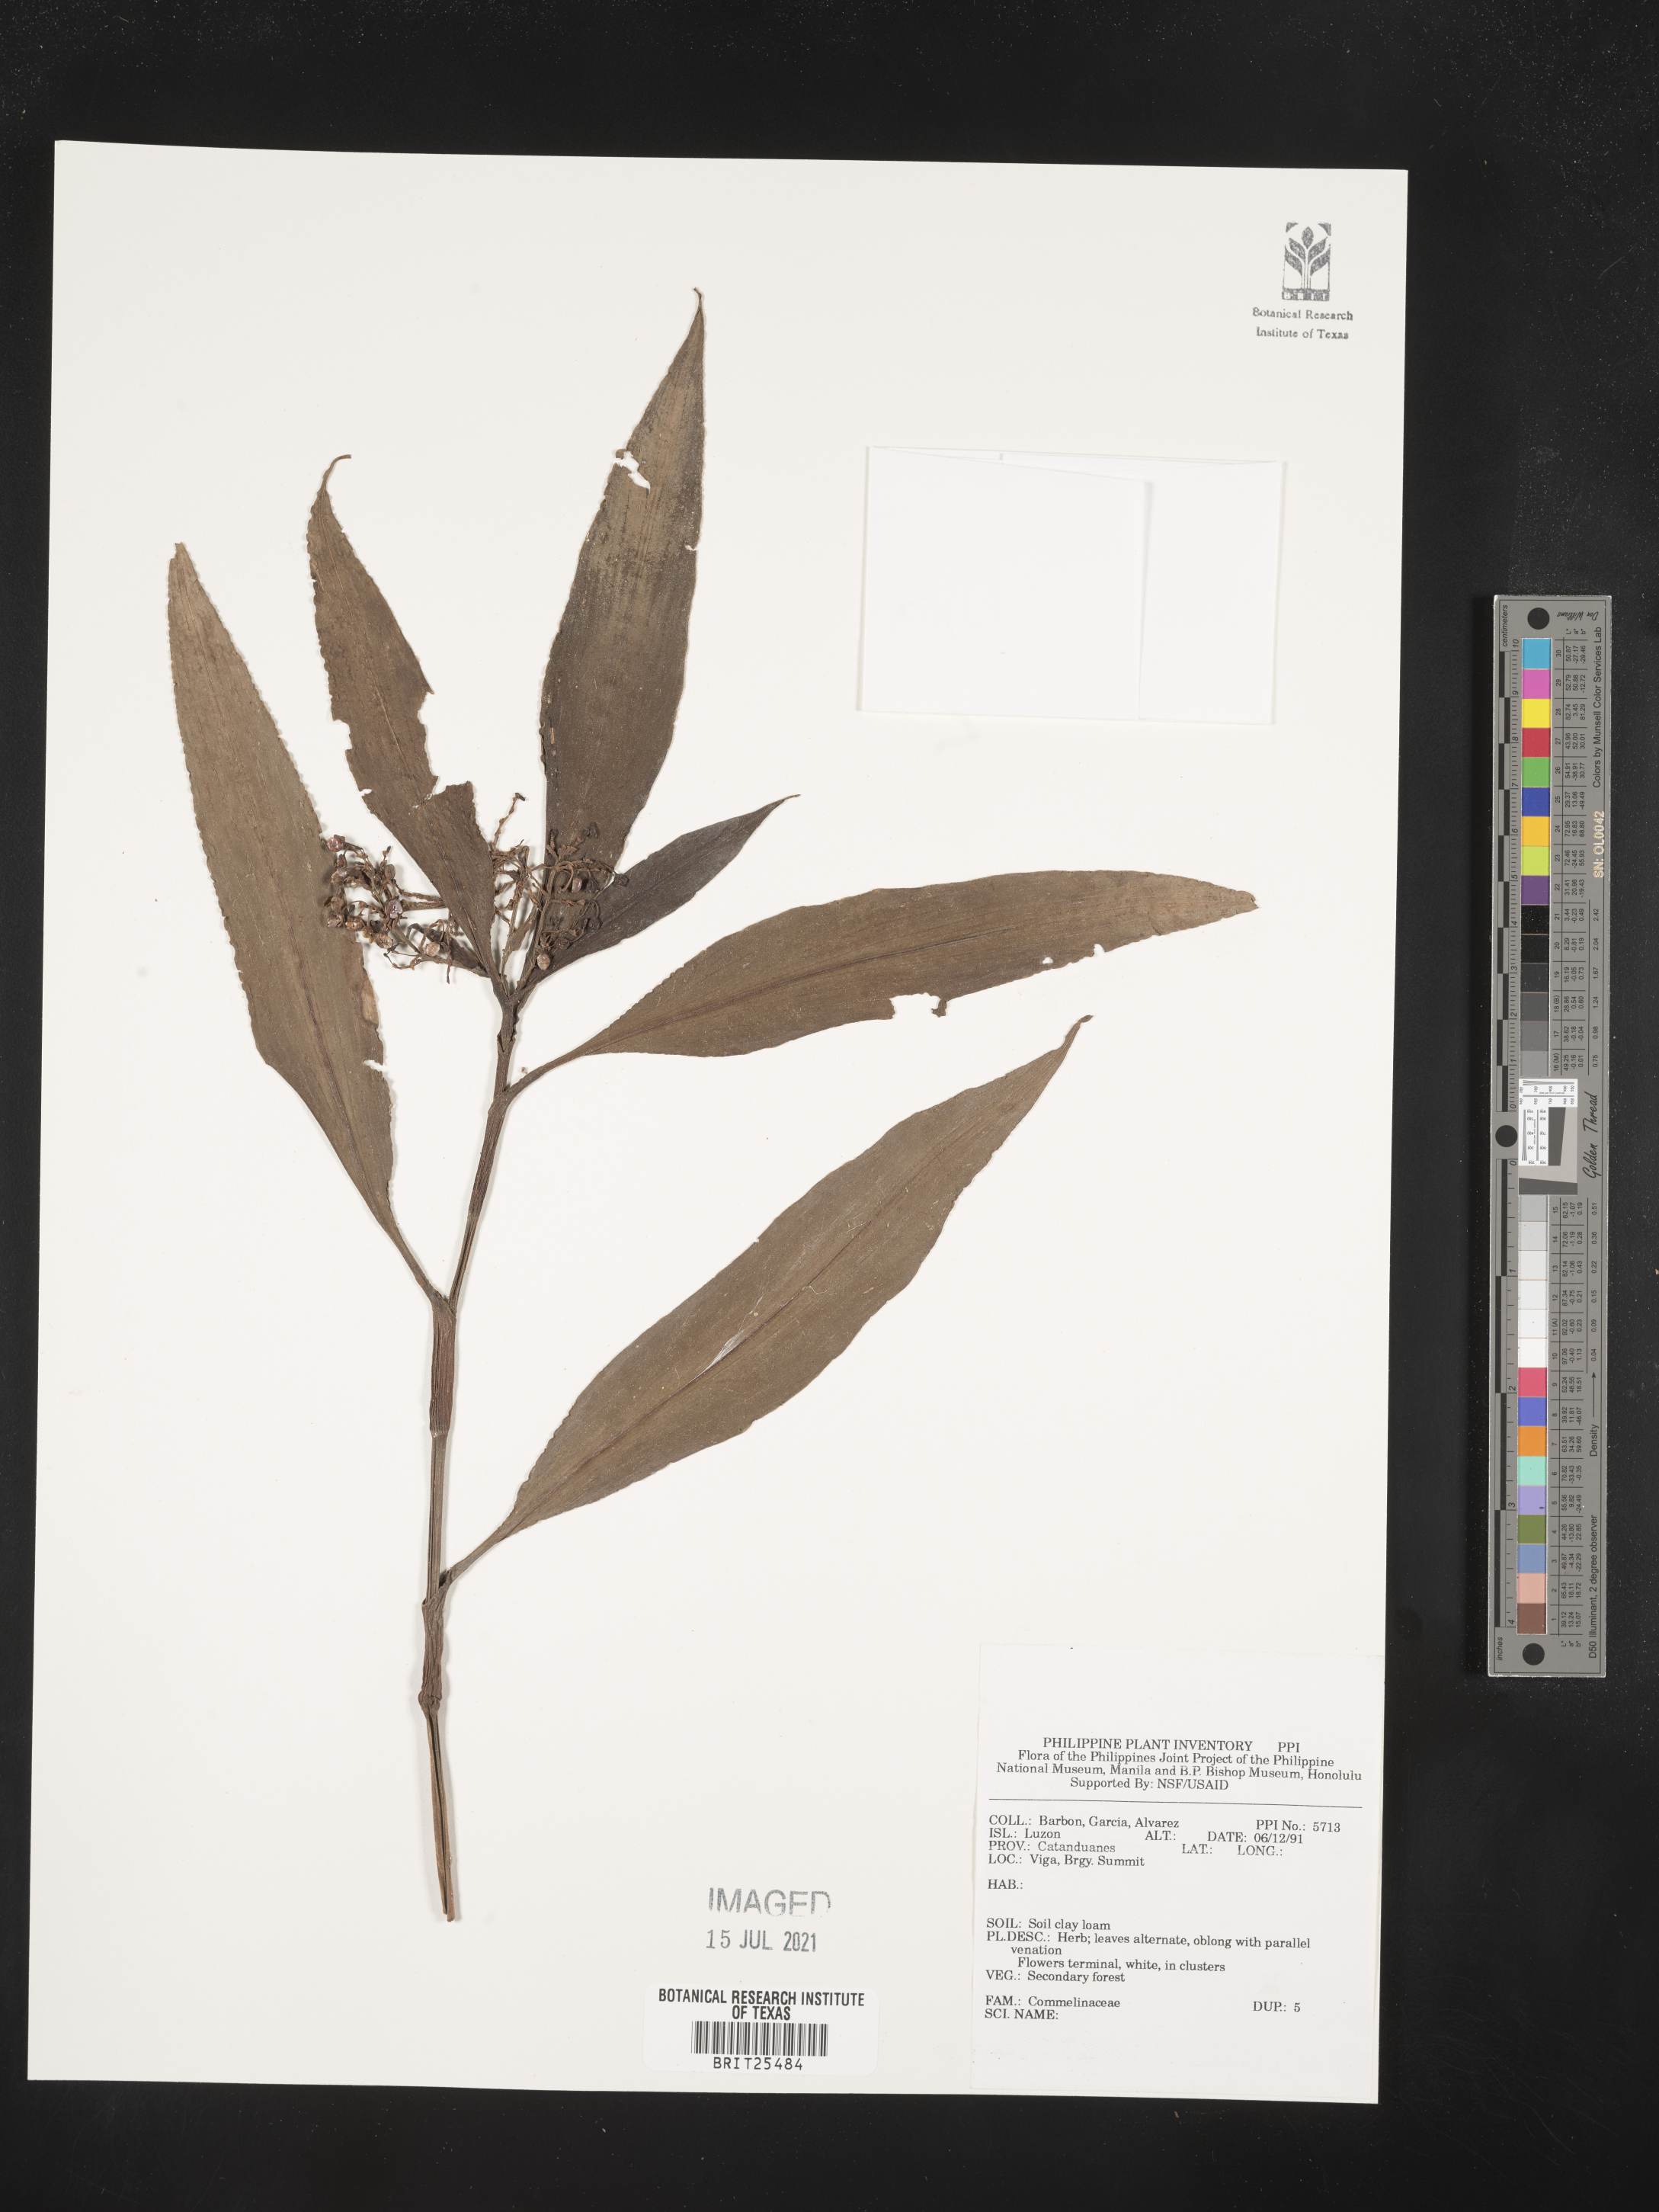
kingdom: Plantae
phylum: Tracheophyta
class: Liliopsida
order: Commelinales
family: Commelinaceae
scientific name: Commelinaceae
